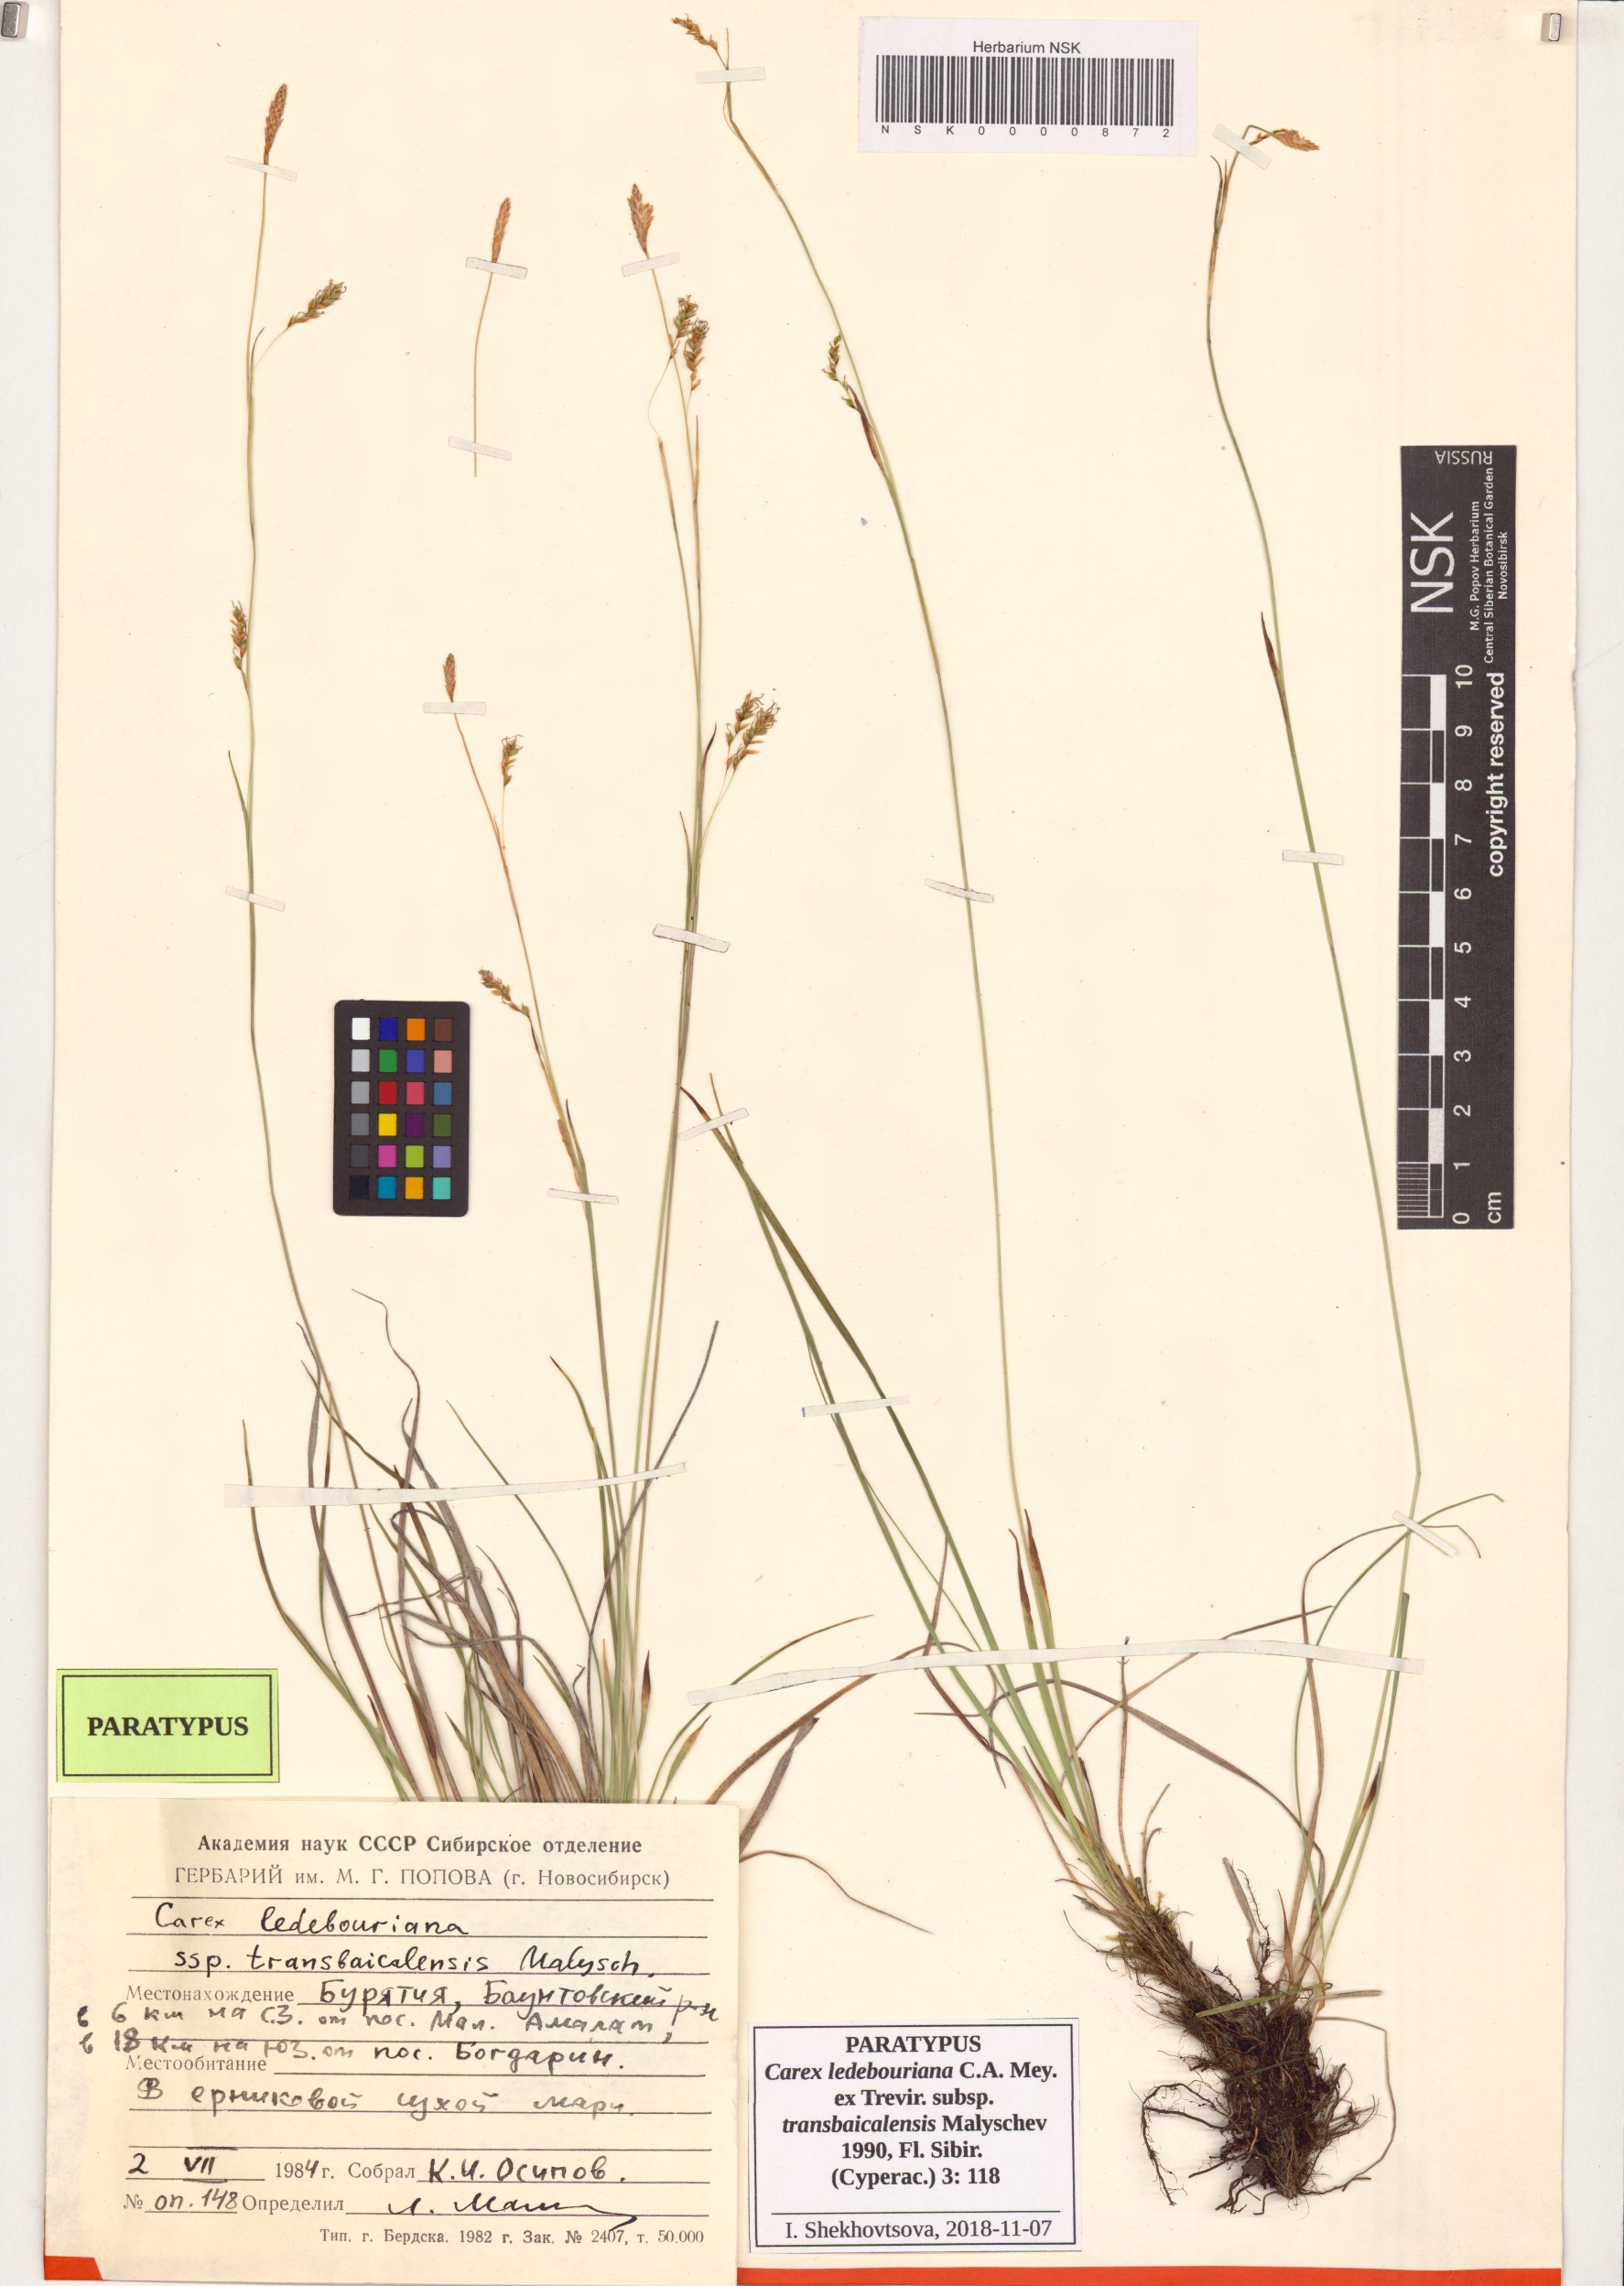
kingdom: Plantae
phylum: Tracheophyta
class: Liliopsida
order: Poales
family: Cyperaceae
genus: Carex
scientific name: Carex ledebouriana
